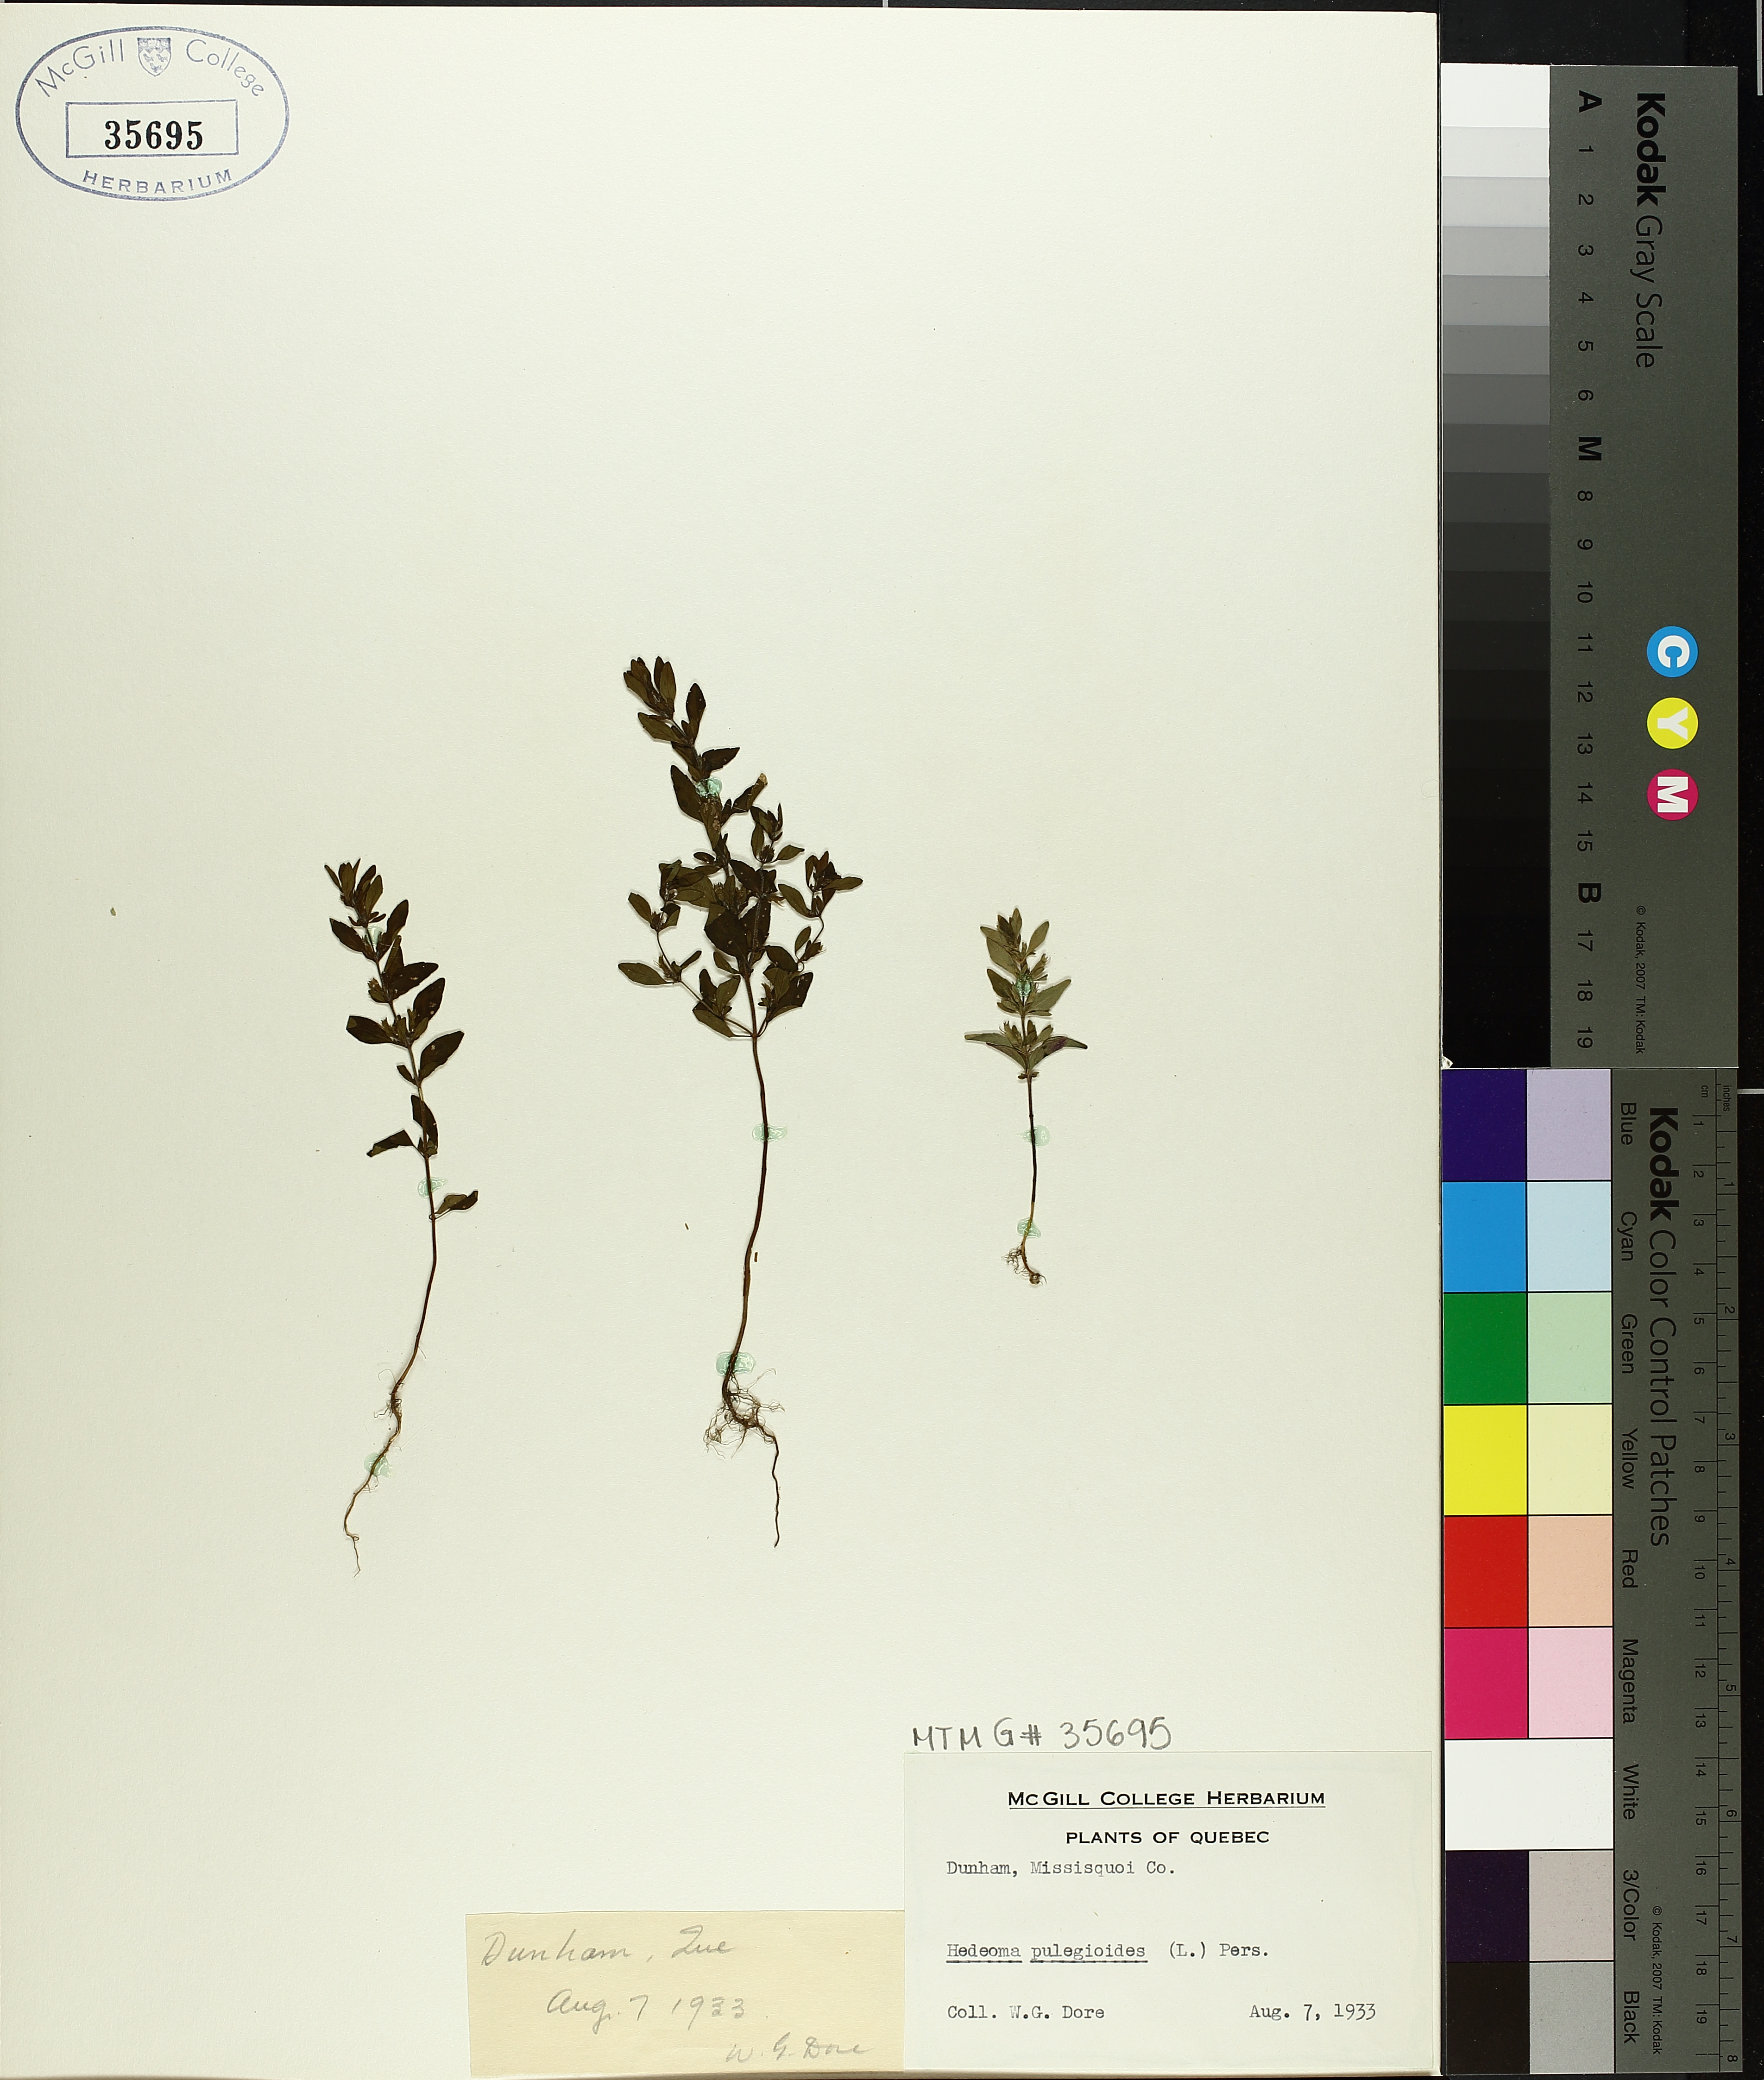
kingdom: Plantae
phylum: Tracheophyta
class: Magnoliopsida
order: Lamiales
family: Lamiaceae
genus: Hedeoma
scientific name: Hedeoma pulegioides
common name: American false pennyroyal
